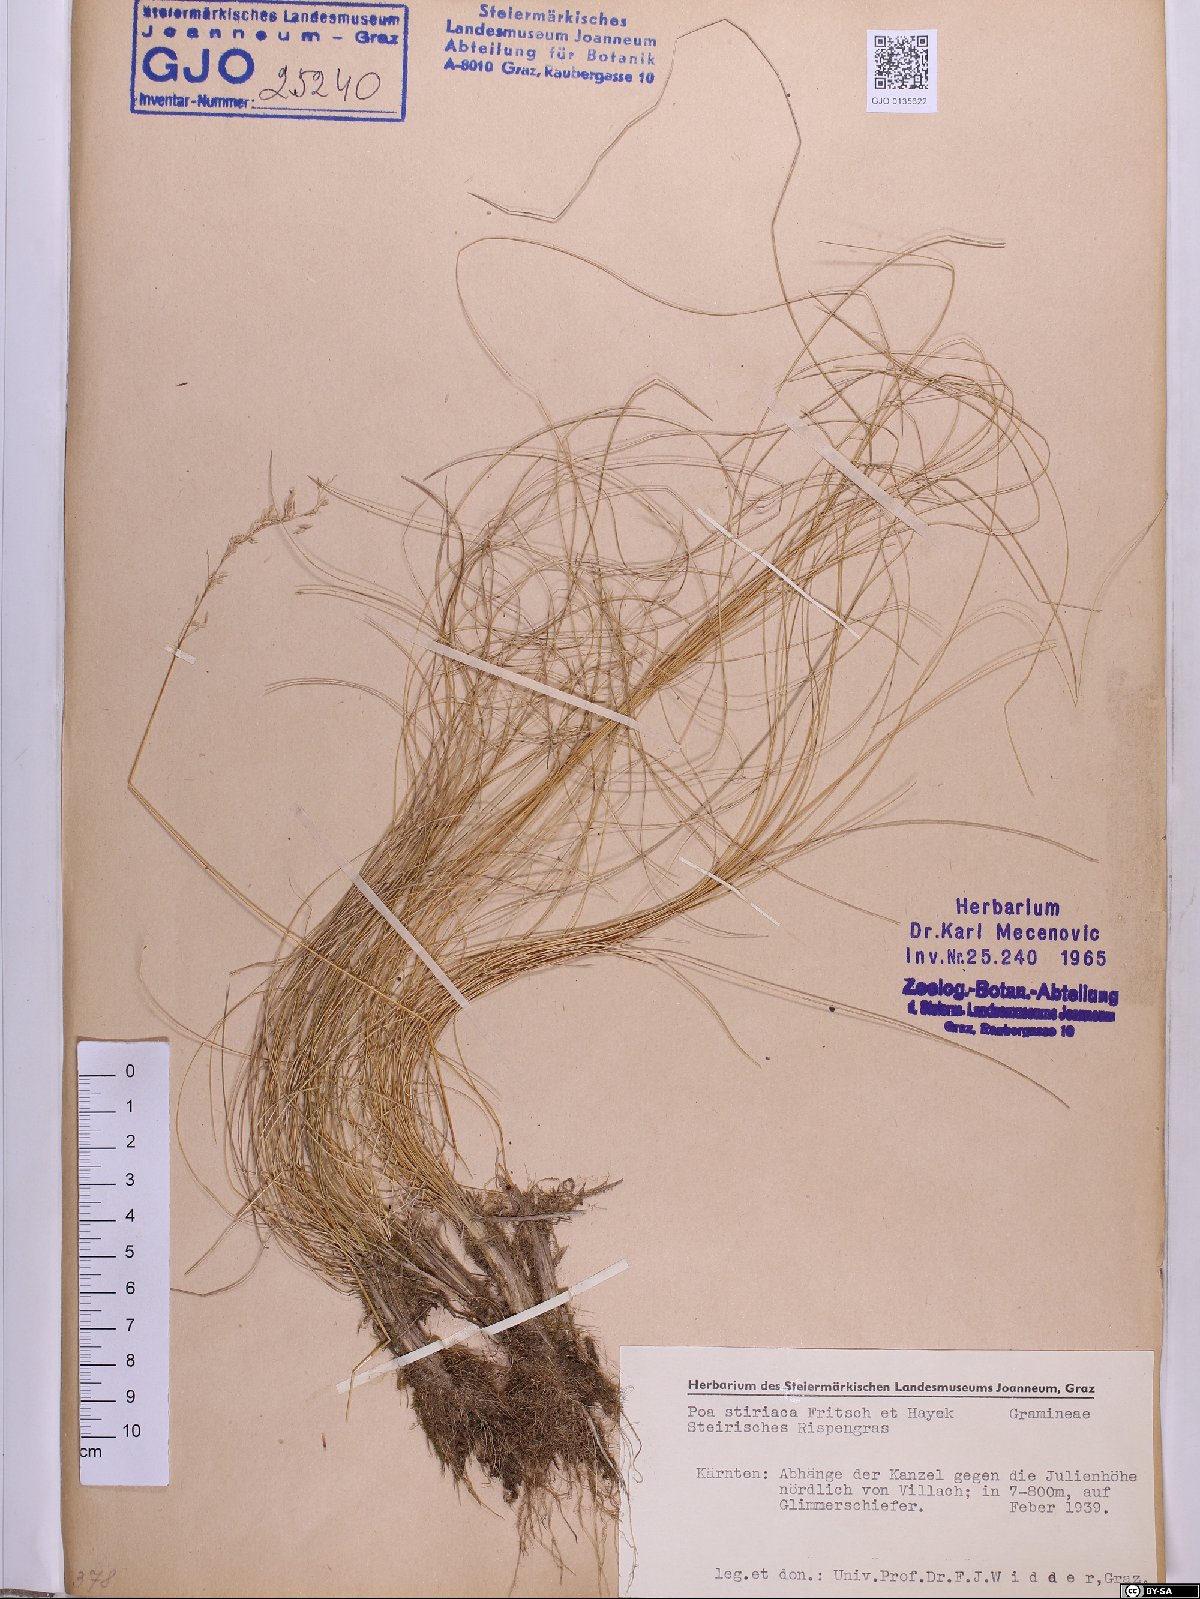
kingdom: Plantae
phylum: Tracheophyta
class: Liliopsida
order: Poales
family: Poaceae
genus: Poa
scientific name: Poa stiriaca
